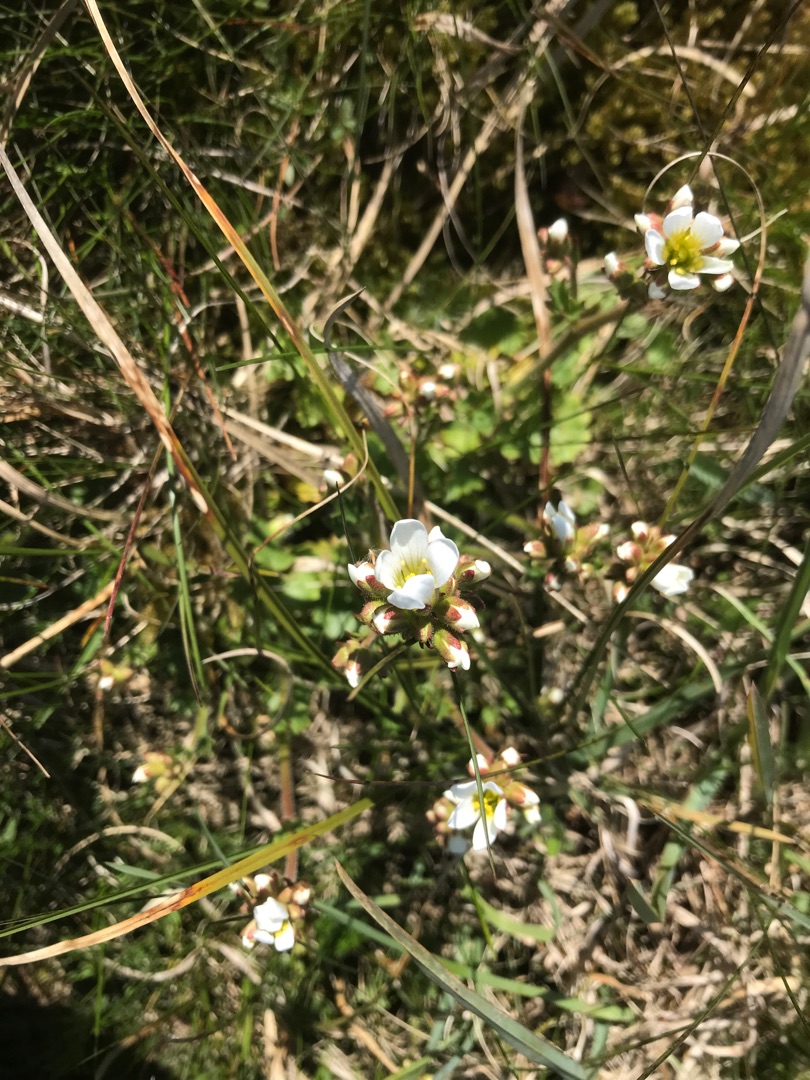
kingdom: Plantae
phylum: Tracheophyta
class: Magnoliopsida
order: Saxifragales
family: Saxifragaceae
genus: Saxifraga
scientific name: Saxifraga granulata
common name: Kornet stenbræk
